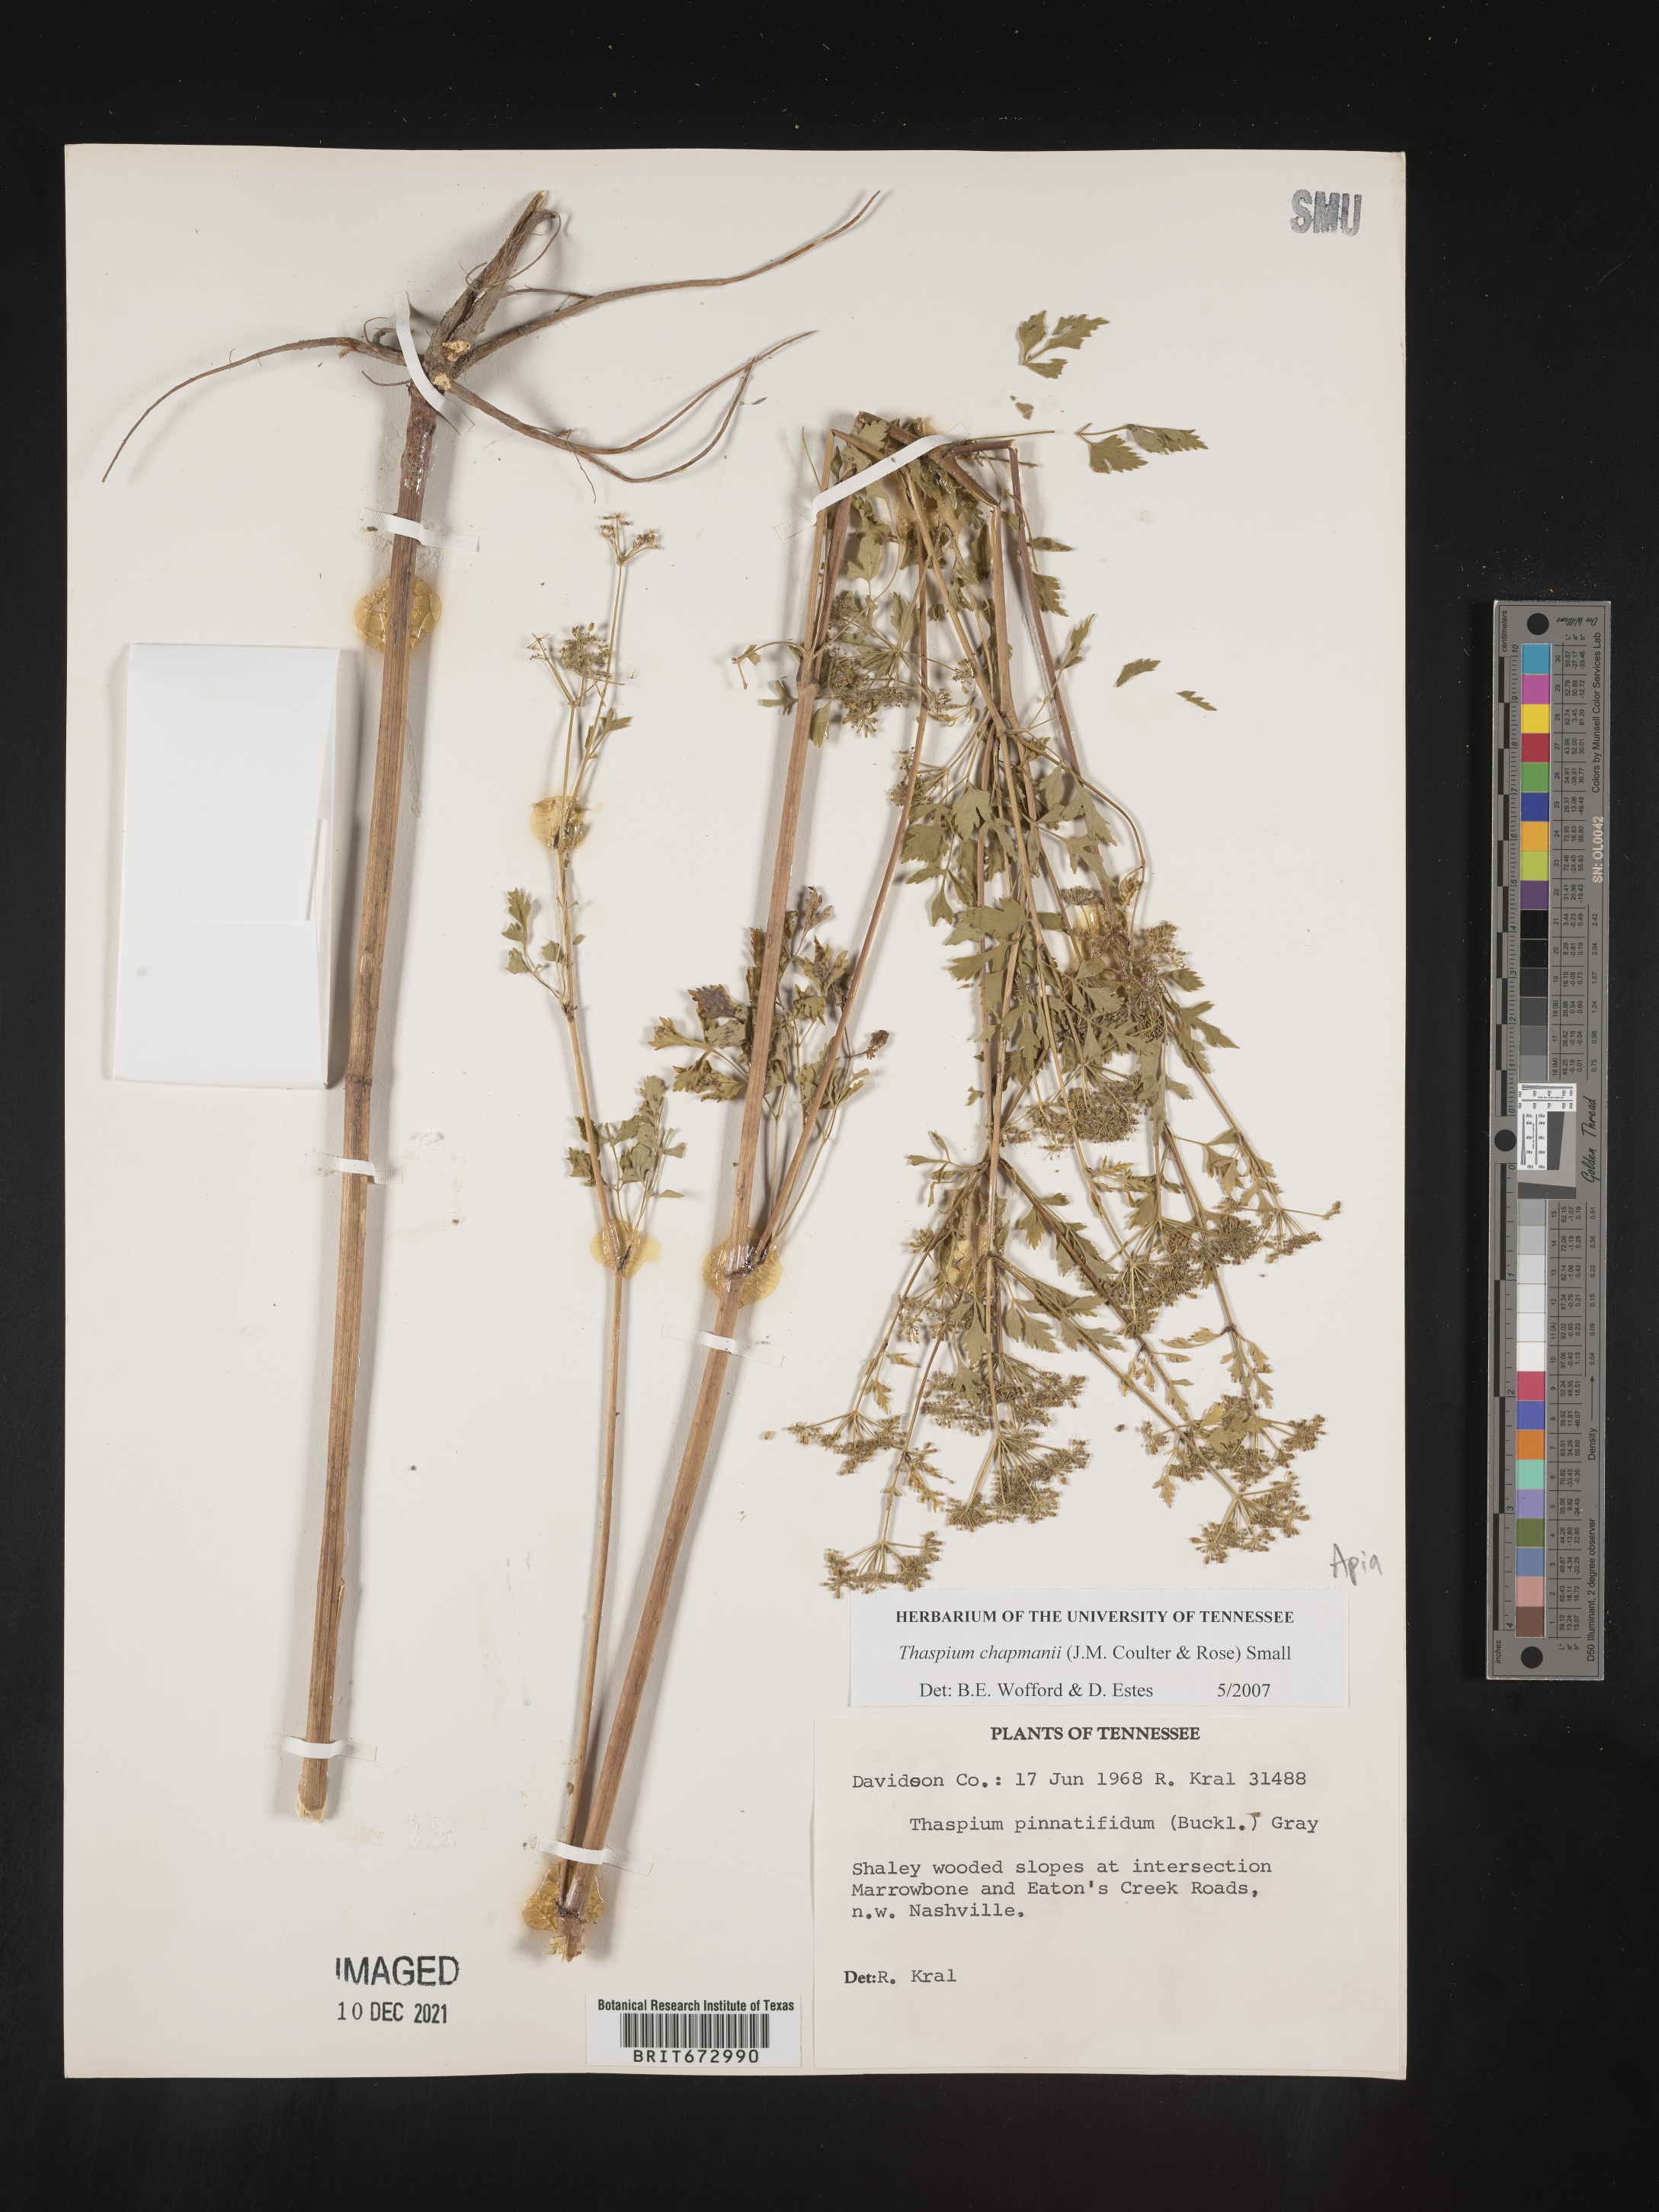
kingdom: Plantae
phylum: Tracheophyta
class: Magnoliopsida
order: Apiales
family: Apiaceae
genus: Thaspium
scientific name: Thaspium barbinode
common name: Bearded meadow-parsnip
